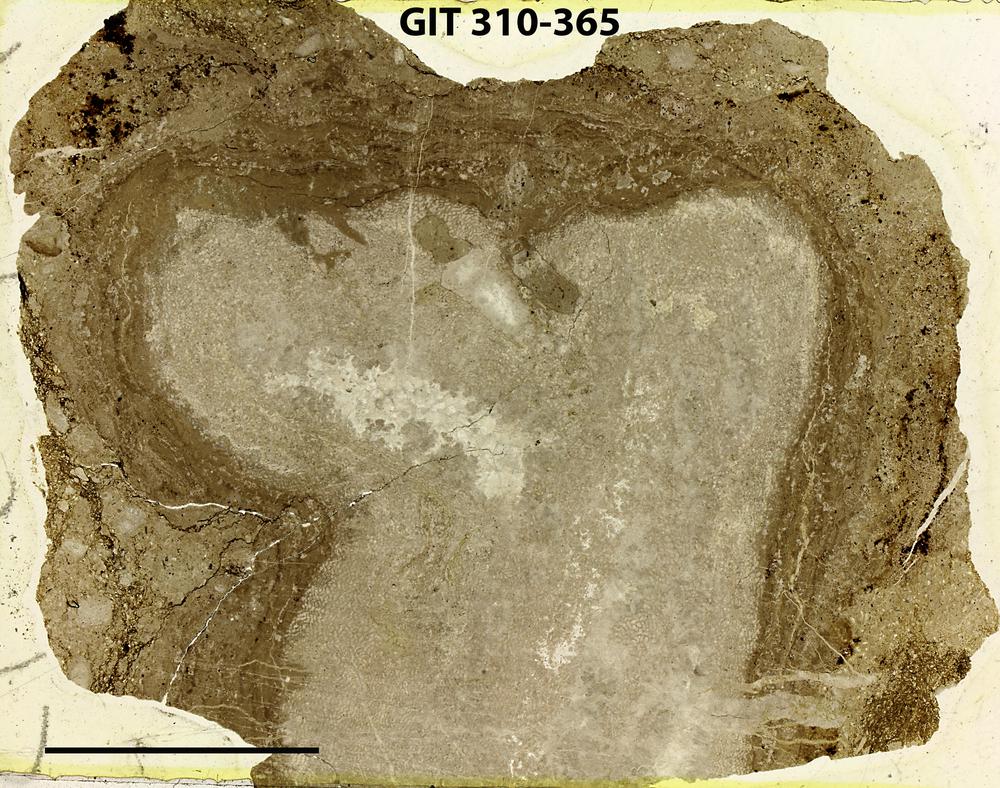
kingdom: Animalia
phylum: Porifera
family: Ecclimadictyidae
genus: Ecclimadictyon
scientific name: Ecclimadictyon
